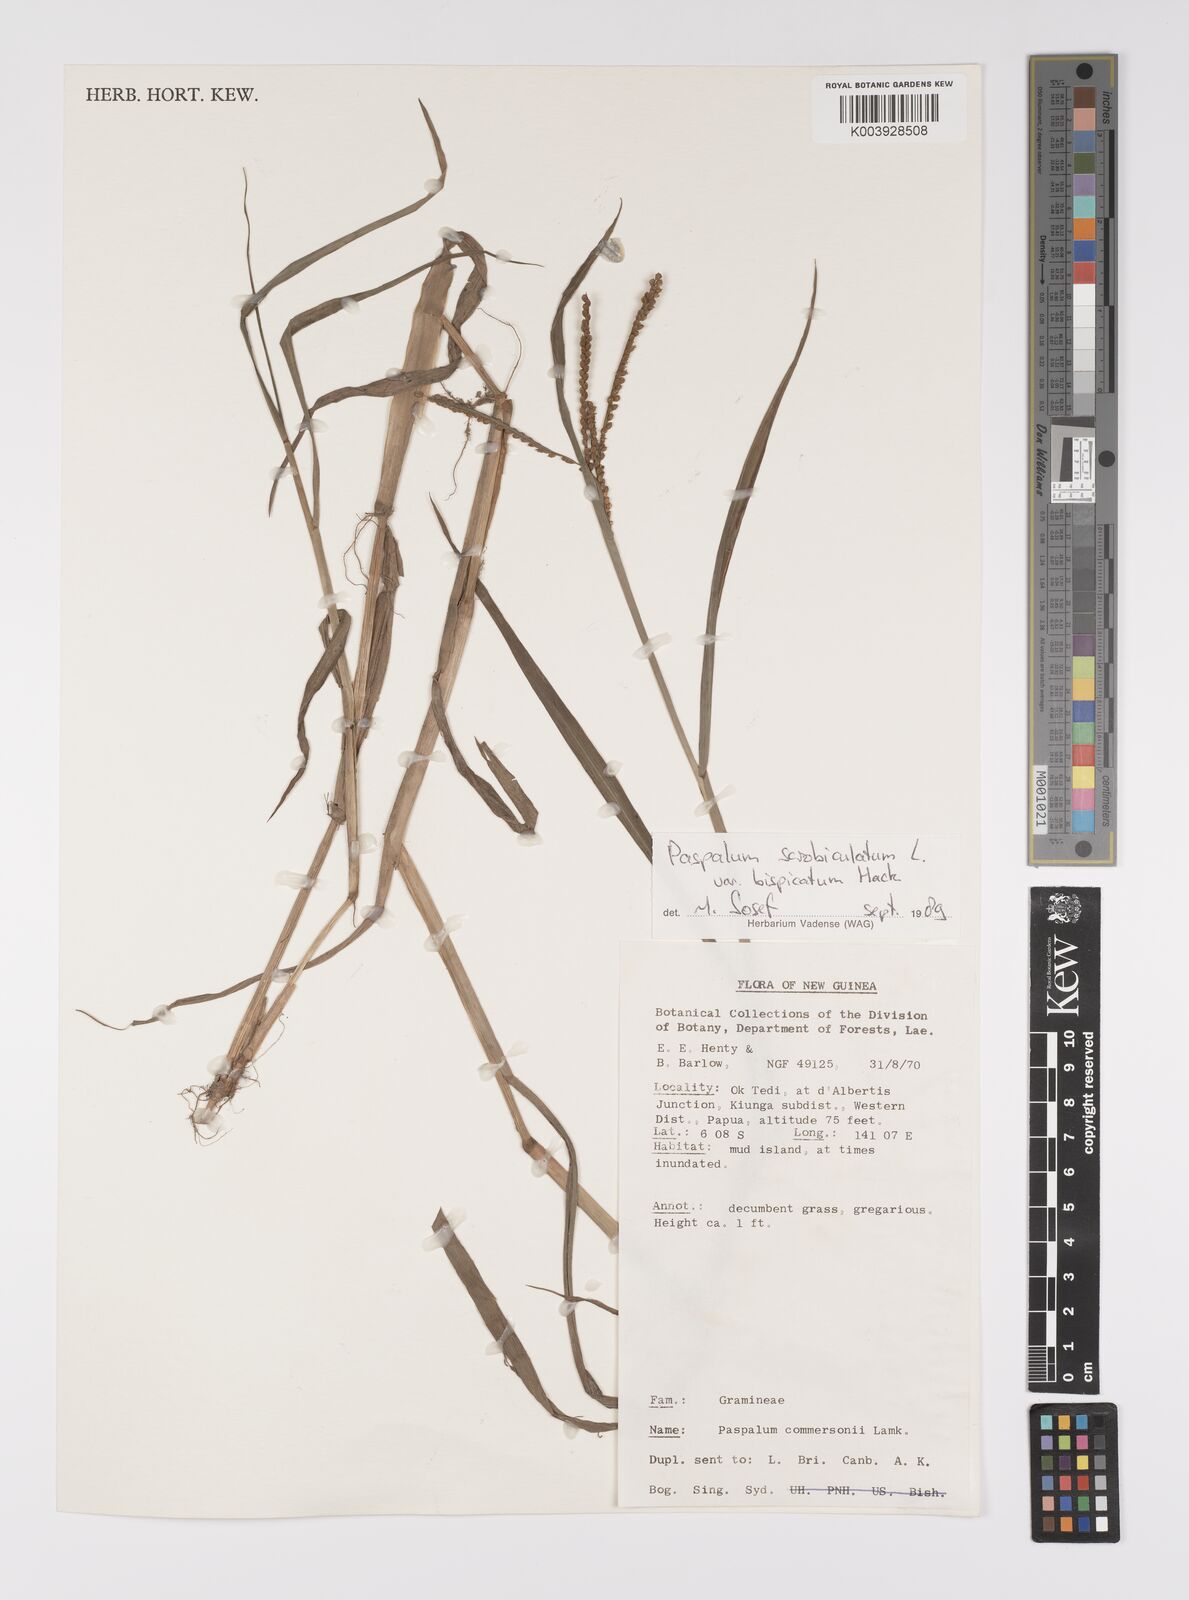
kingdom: Plantae
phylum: Tracheophyta
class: Liliopsida
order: Poales
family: Poaceae
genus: Paspalum
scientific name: Paspalum scrobiculatum
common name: Kodo millet
